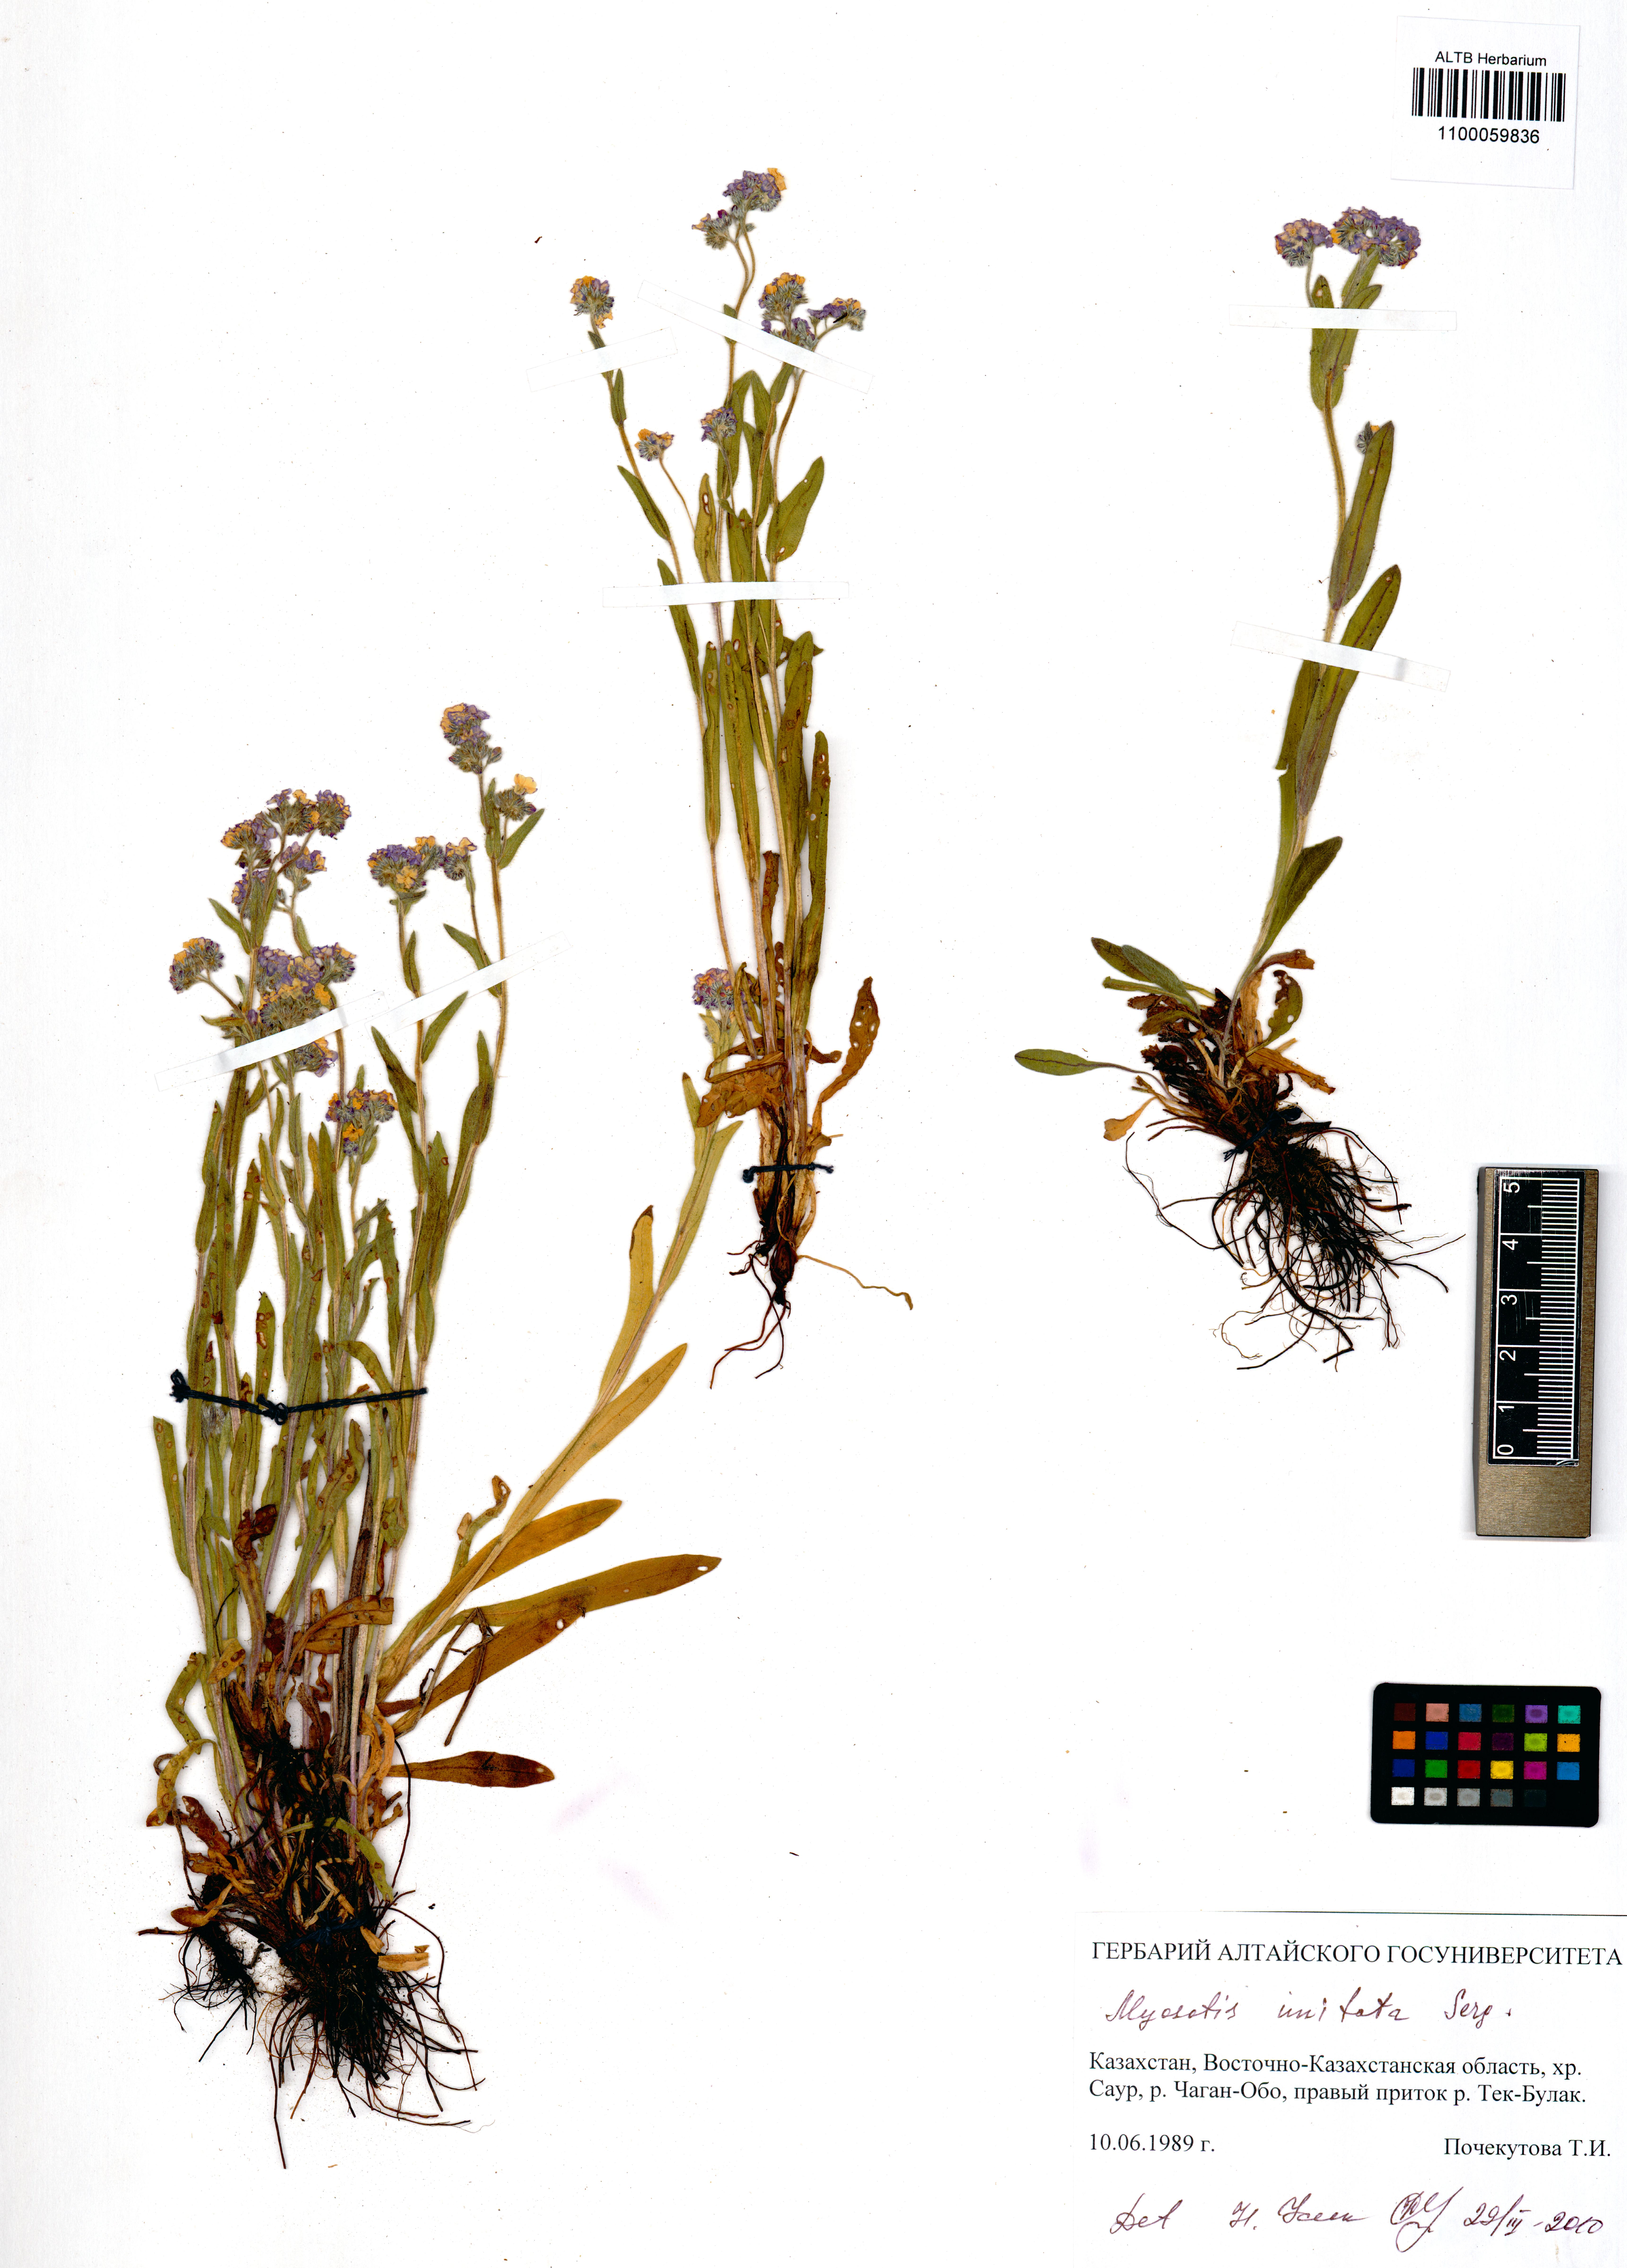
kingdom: Plantae
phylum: Tracheophyta
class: Magnoliopsida
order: Boraginales
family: Boraginaceae
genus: Myosotis
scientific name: Myosotis imitata
